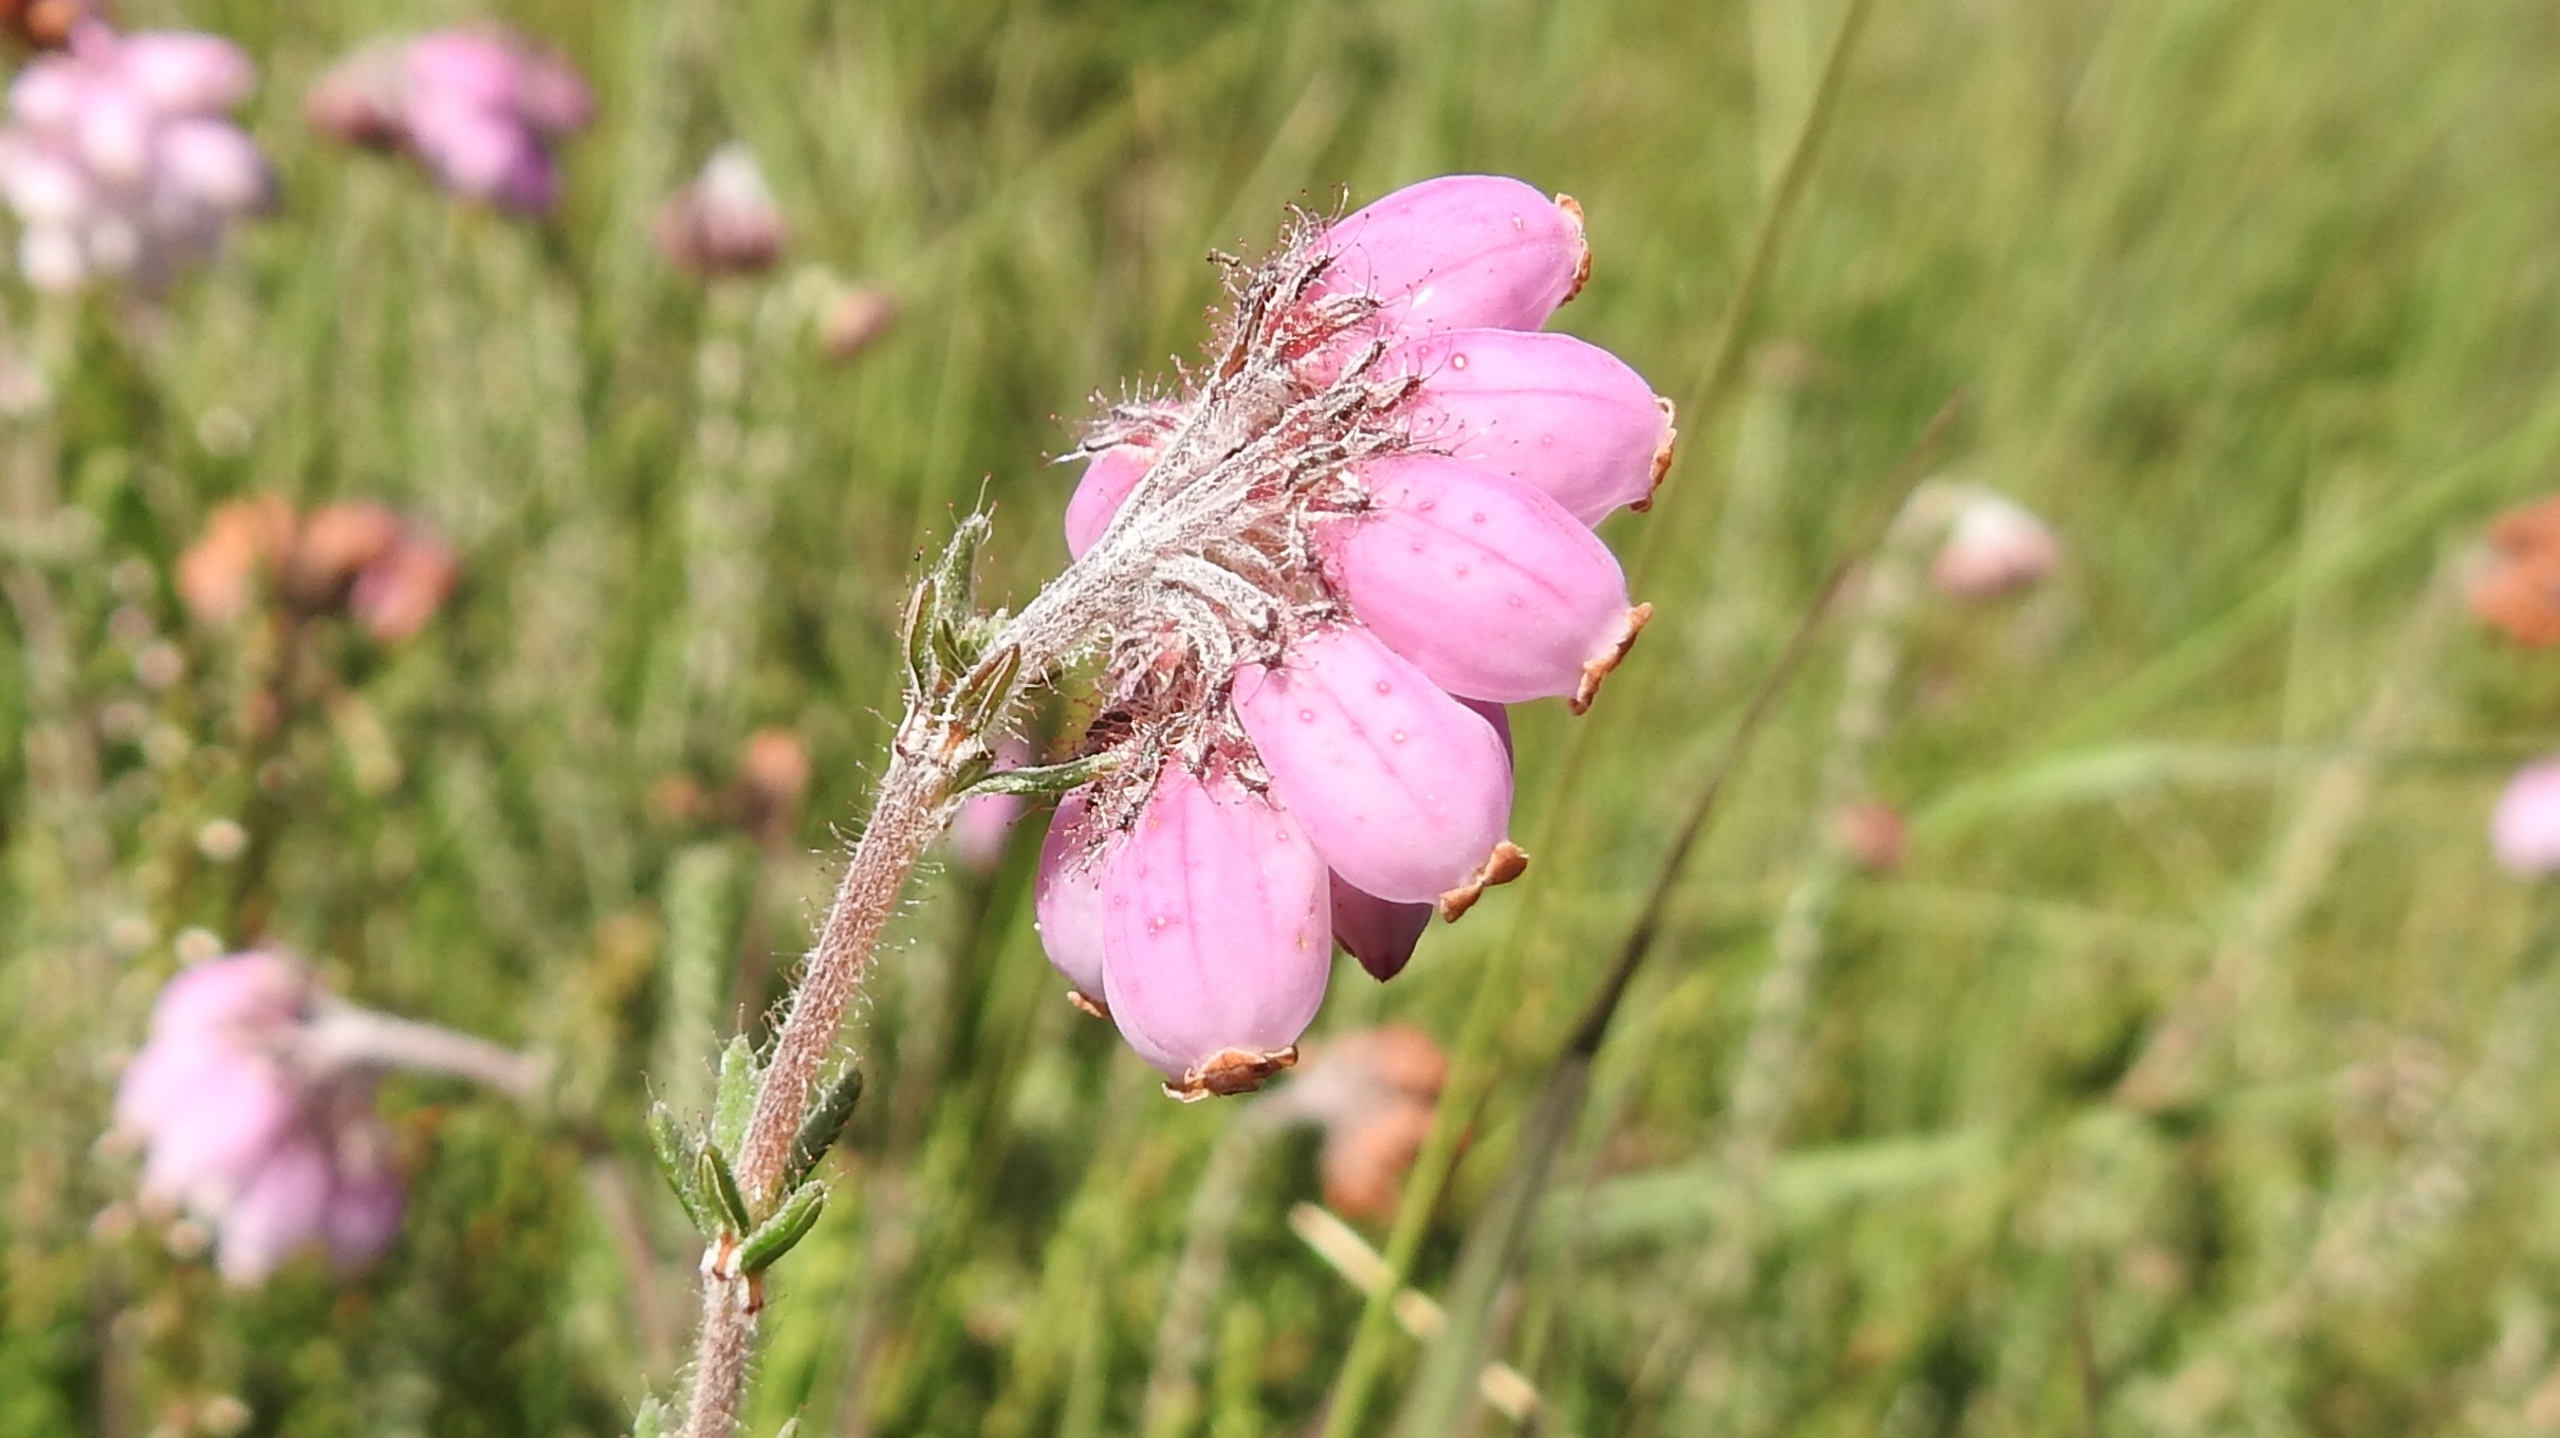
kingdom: Plantae
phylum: Tracheophyta
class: Magnoliopsida
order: Ericales
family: Ericaceae
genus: Erica
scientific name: Erica tetralix
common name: Klokkelyng
